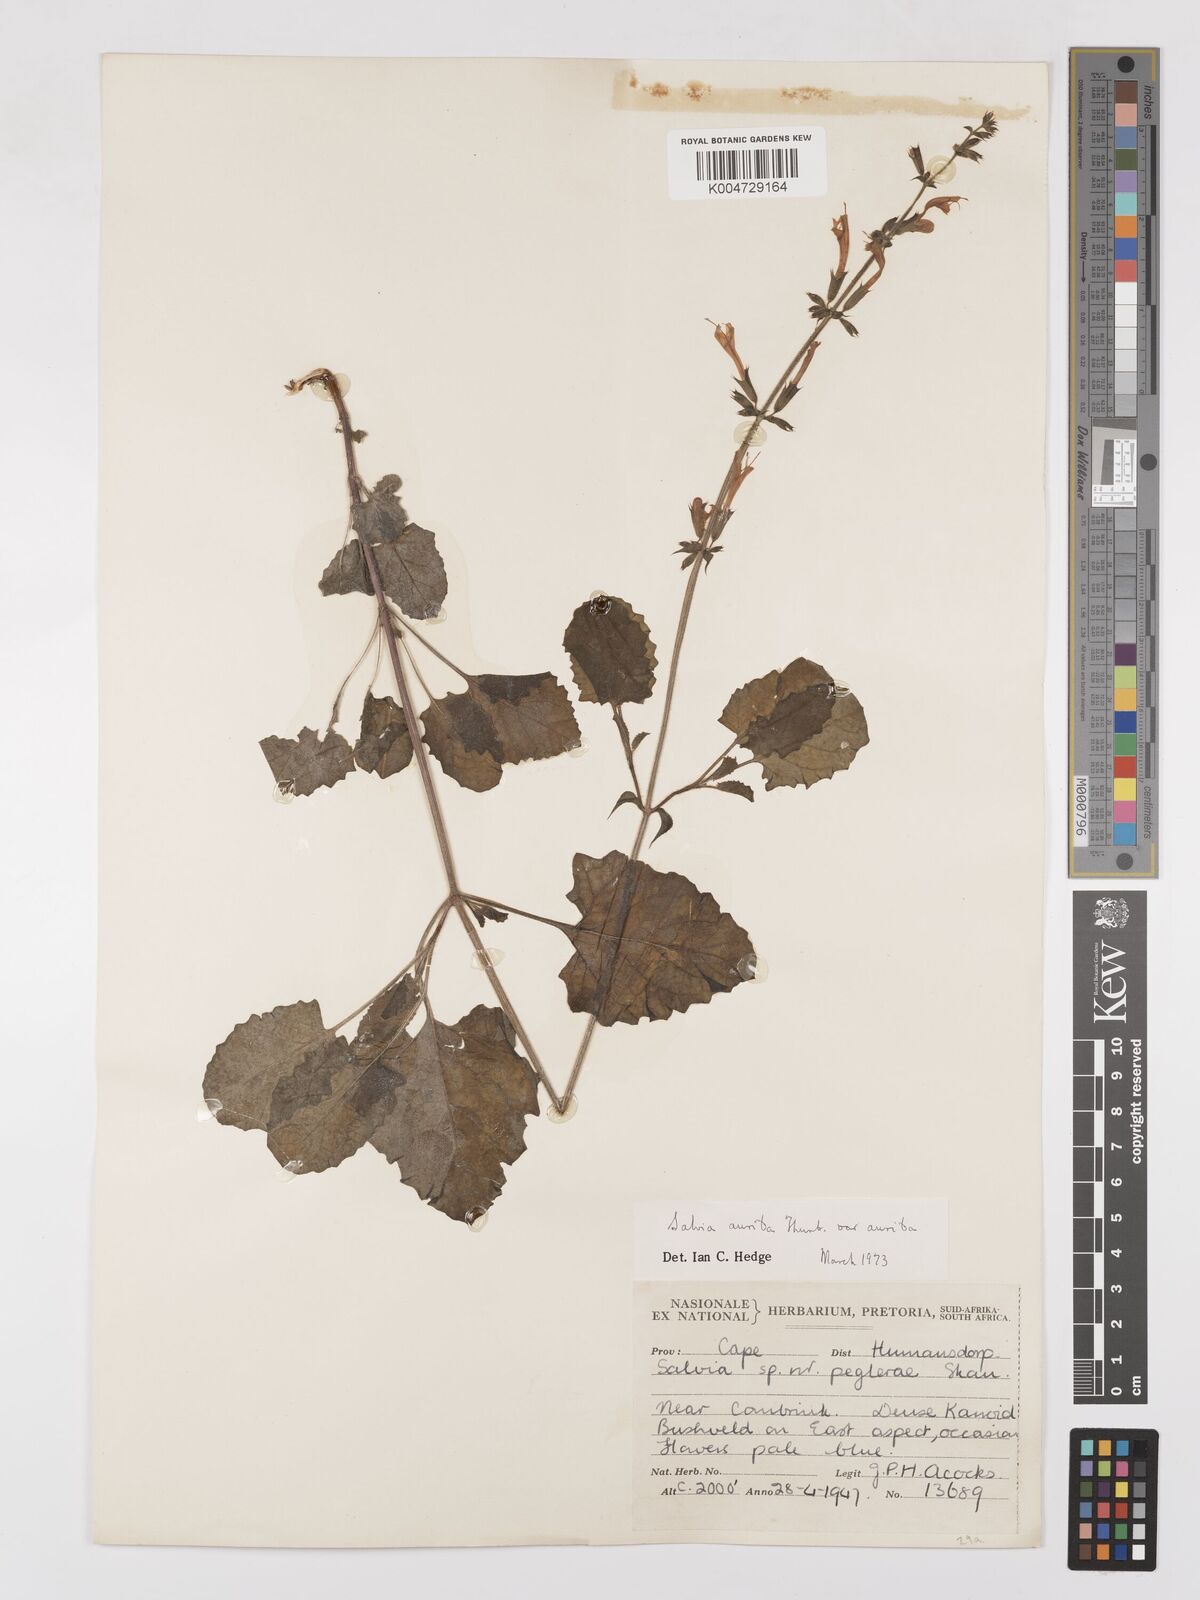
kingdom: Plantae
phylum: Tracheophyta
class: Magnoliopsida
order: Lamiales
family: Lamiaceae
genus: Salvia
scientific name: Salvia aurita
